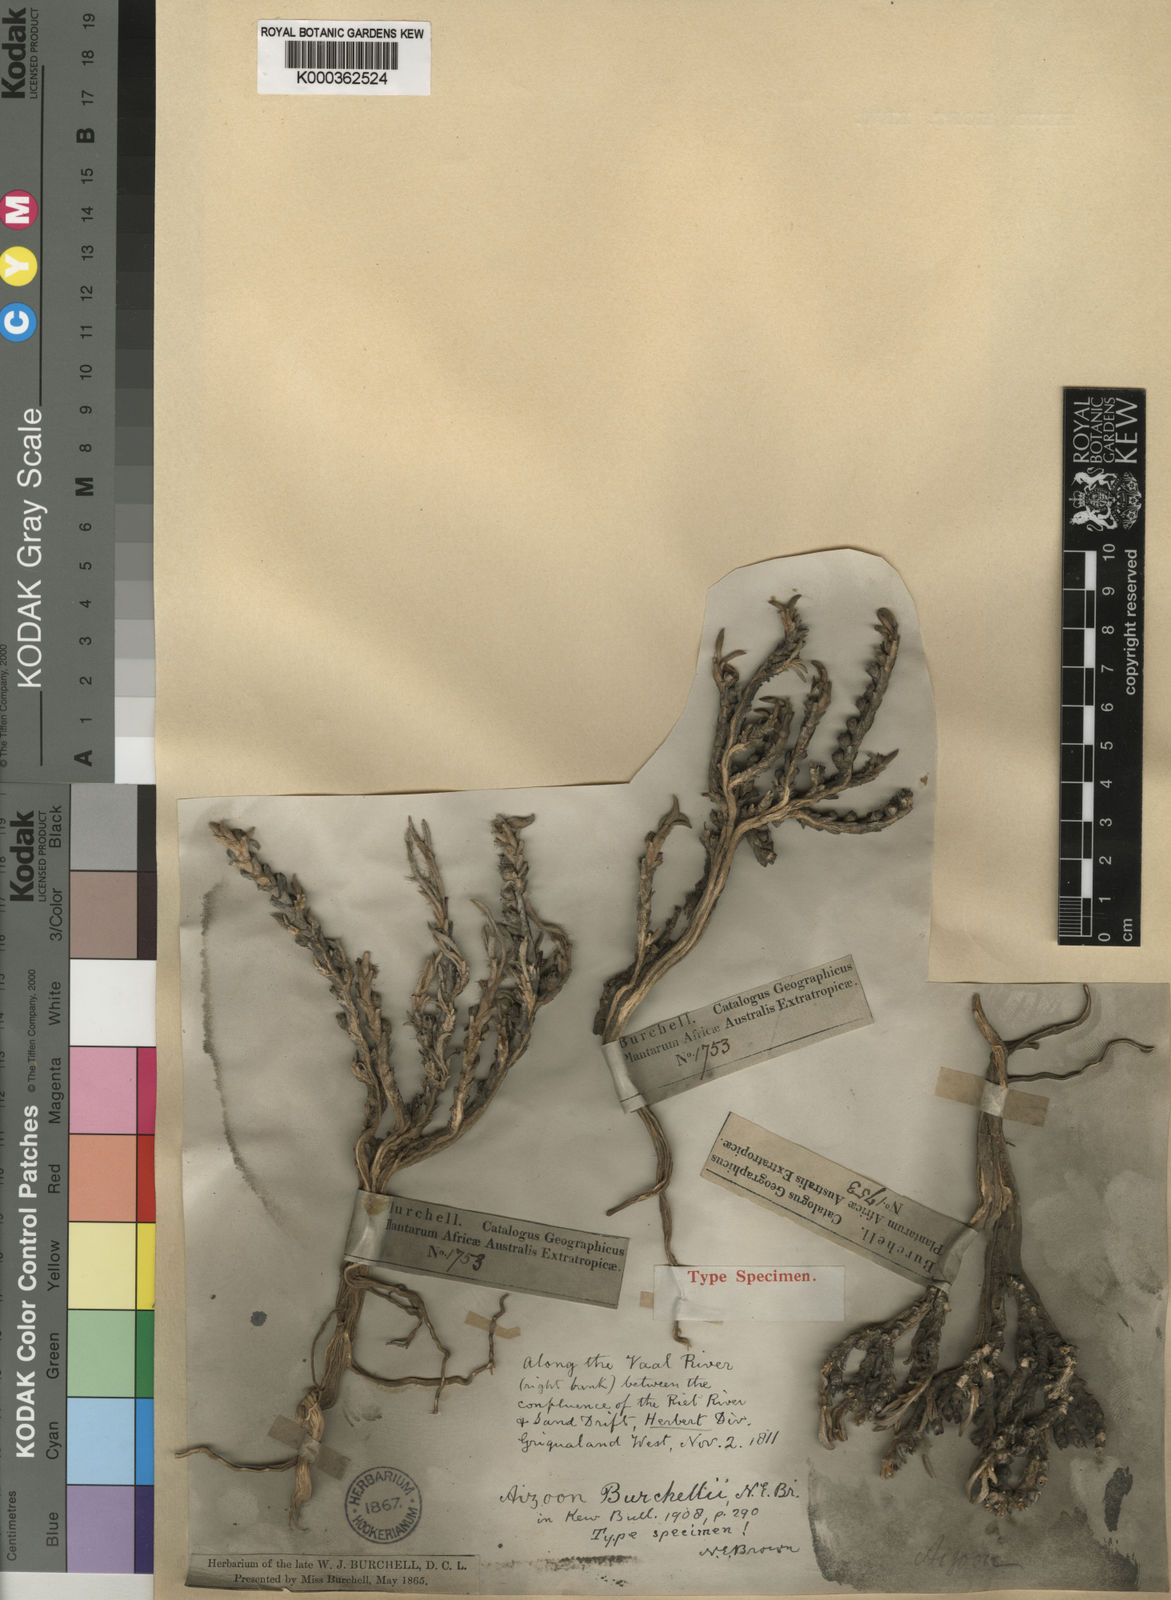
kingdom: Plantae
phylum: Tracheophyta
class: Magnoliopsida
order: Caryophyllales
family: Aizoaceae
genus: Aizoon
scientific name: Aizoon asbestinum
